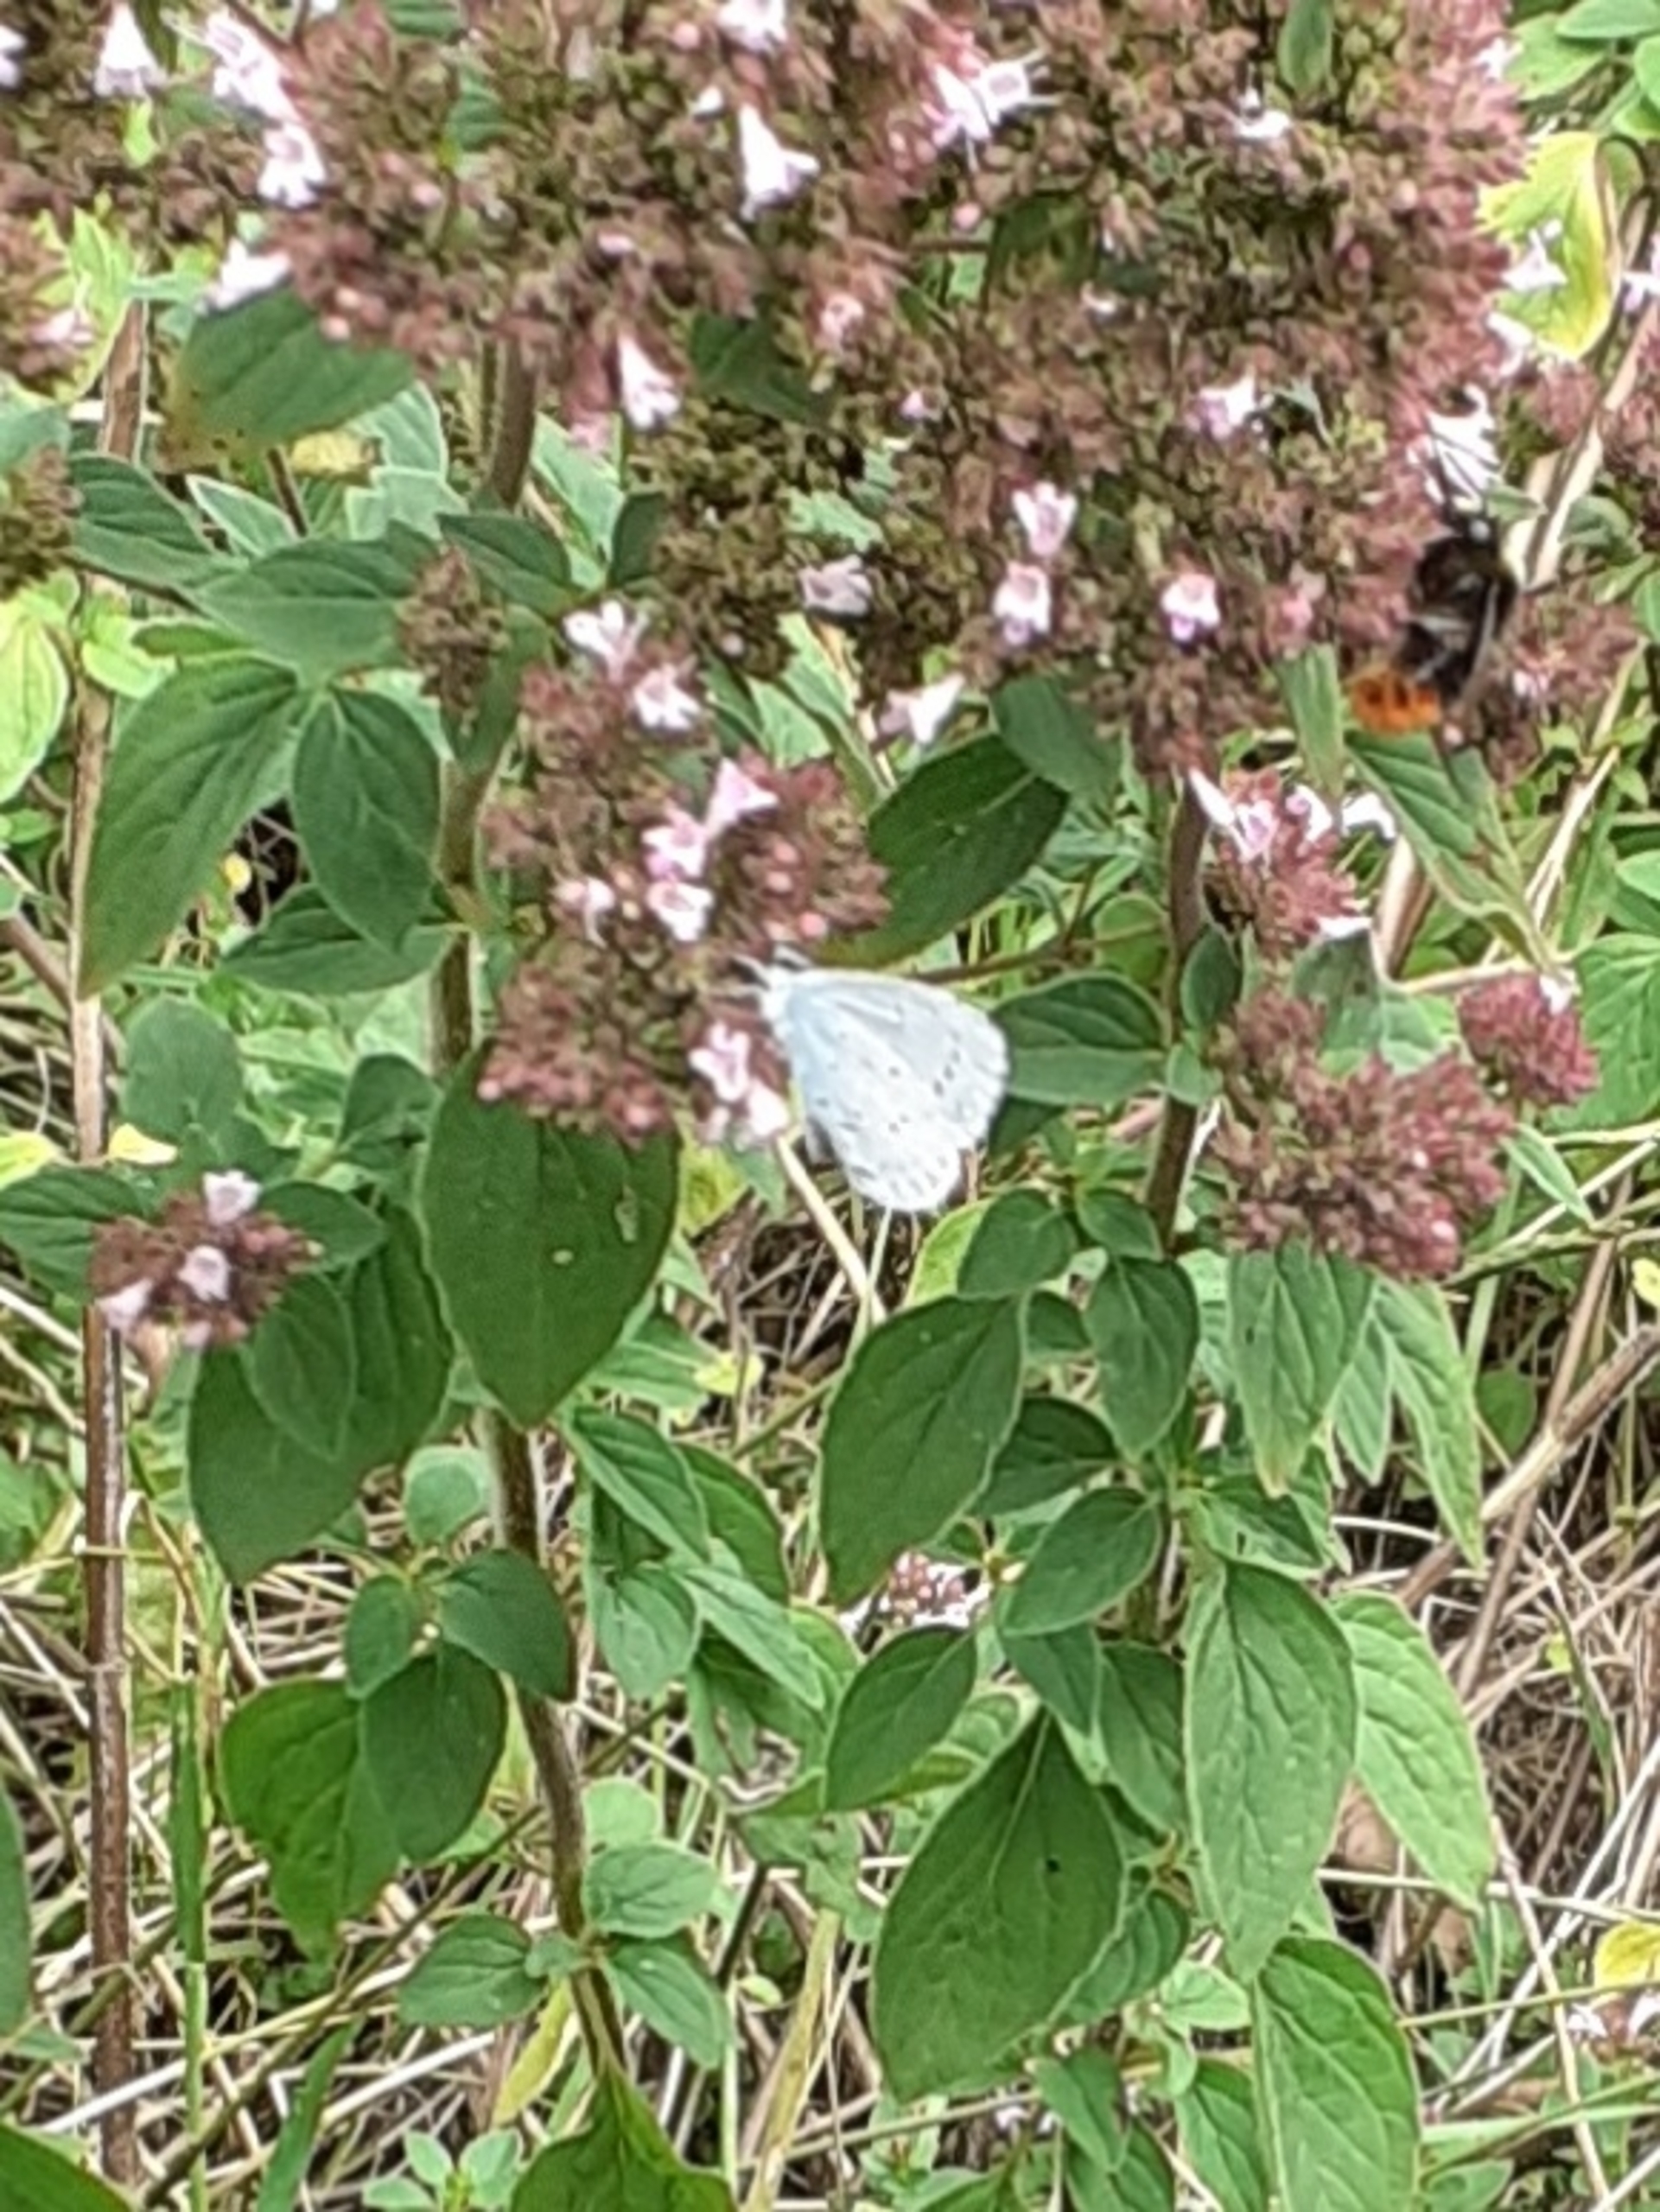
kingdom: Animalia
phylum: Arthropoda
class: Insecta
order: Lepidoptera
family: Lycaenidae
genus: Celastrina
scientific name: Celastrina argiolus
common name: Skovblåfugl
